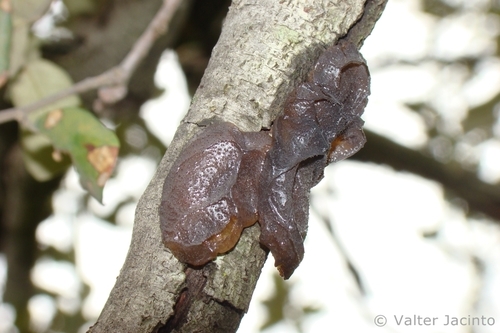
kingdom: Fungi
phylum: Basidiomycota
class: Agaricomycetes
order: Auriculariales
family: Auriculariaceae
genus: Auricularia
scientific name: Auricularia auricula-judae
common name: Jelly ear
